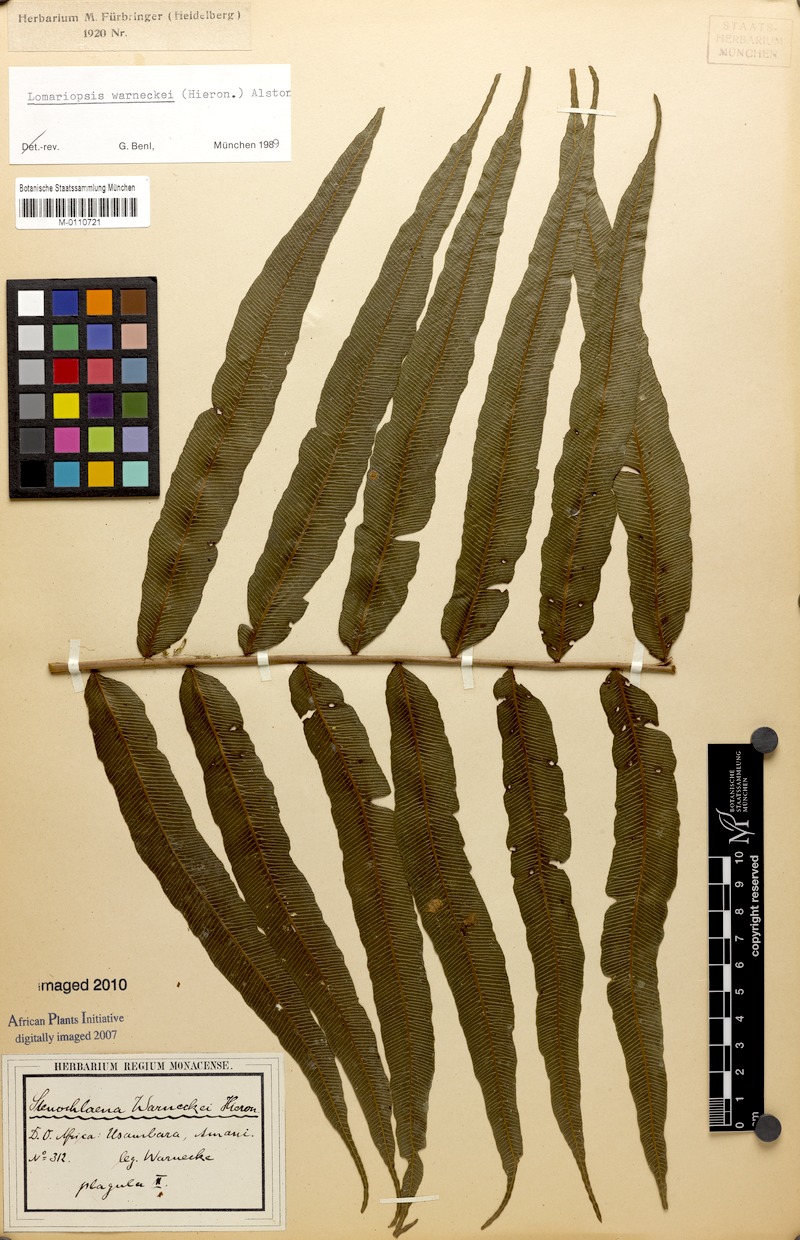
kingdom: Plantae
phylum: Tracheophyta
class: Polypodiopsida
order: Polypodiales
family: Lomariopsidaceae
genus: Lomariopsis
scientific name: Lomariopsis warneckei
